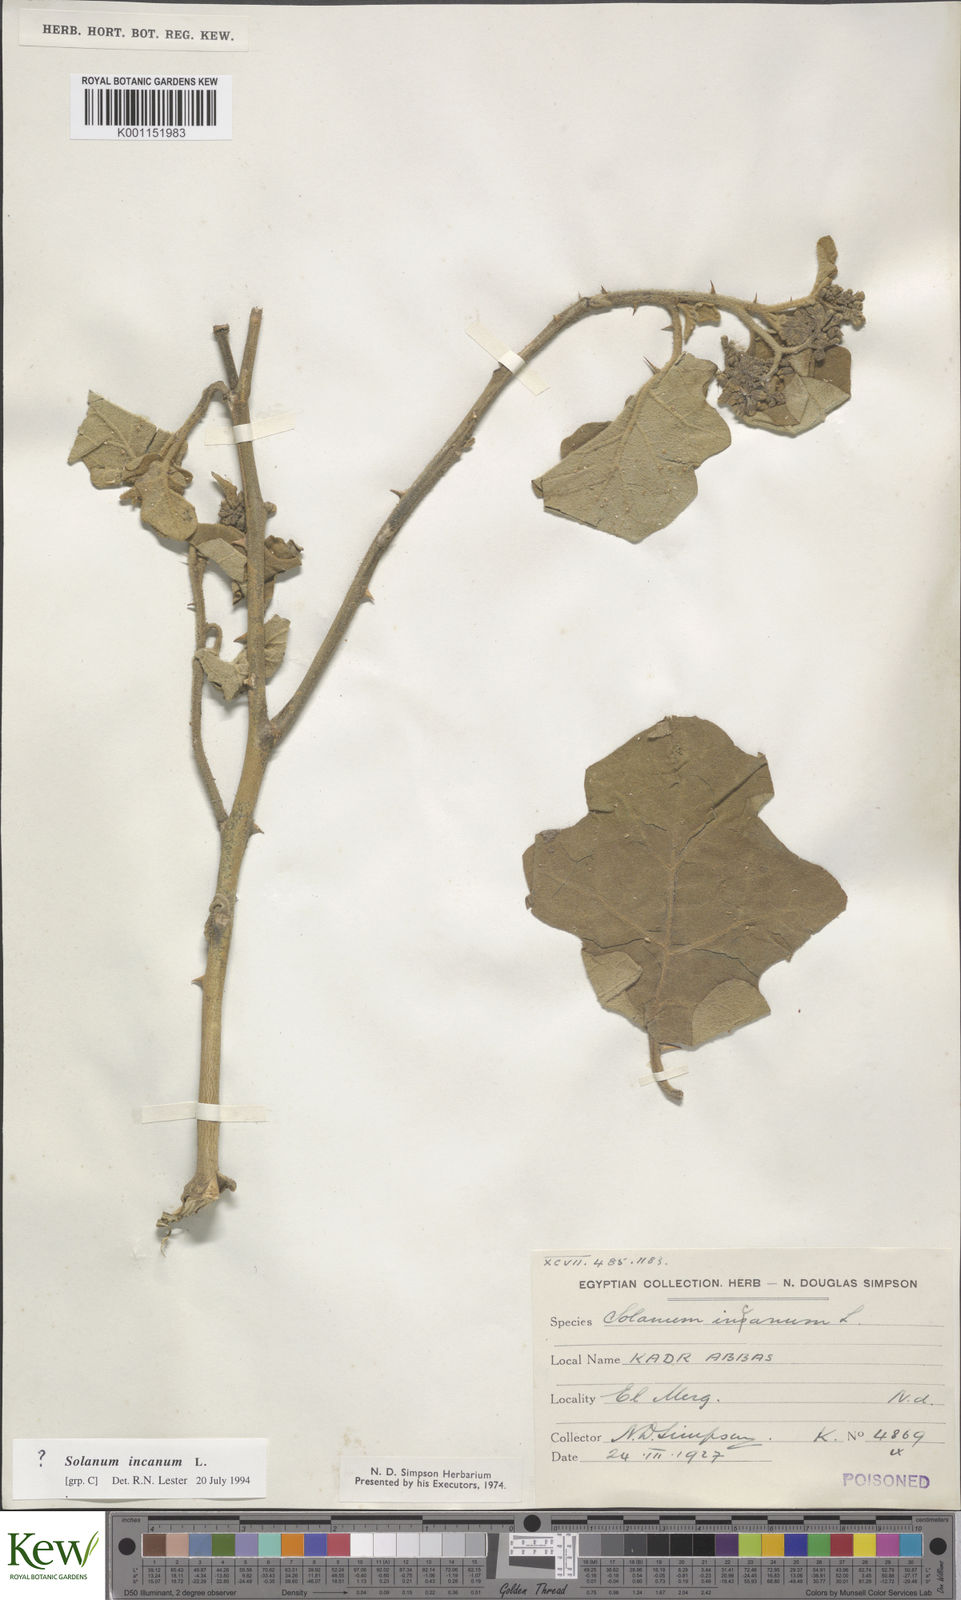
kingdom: Plantae
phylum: Tracheophyta
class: Magnoliopsida
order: Solanales
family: Solanaceae
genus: Solanum
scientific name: Solanum incanum
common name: Bitter apple
